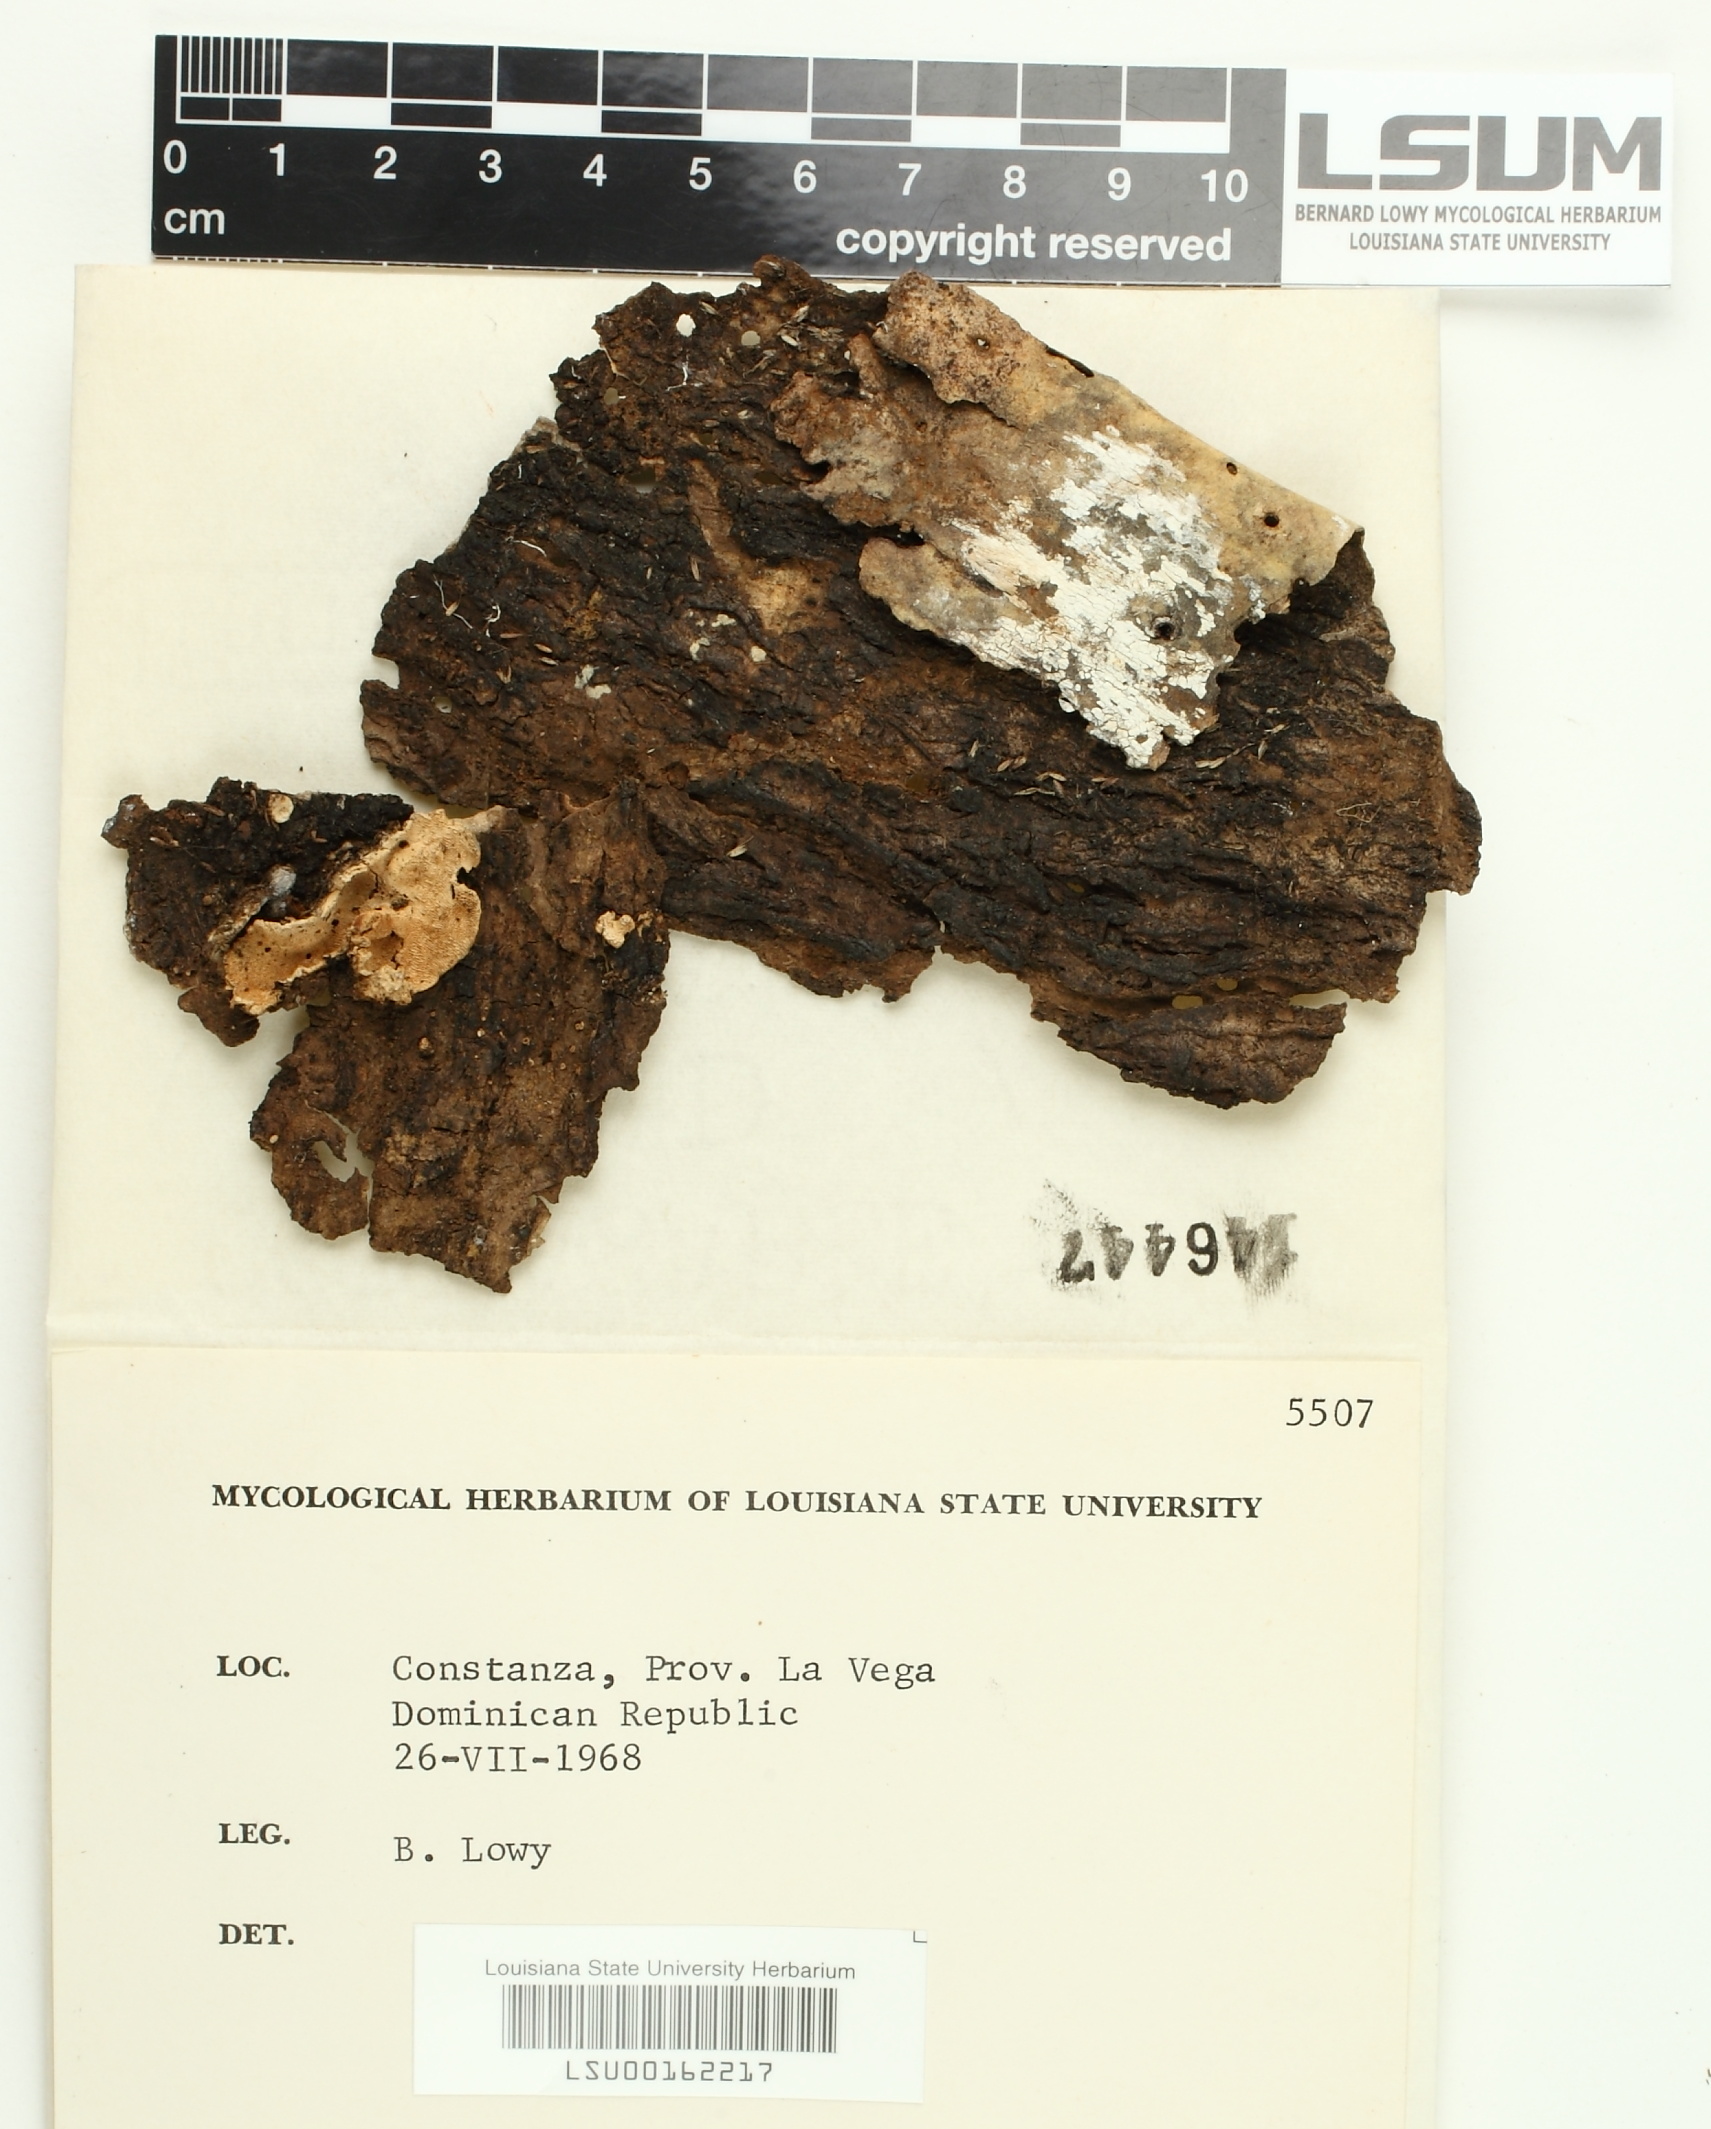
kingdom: Fungi
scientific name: Fungi
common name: Fungi
